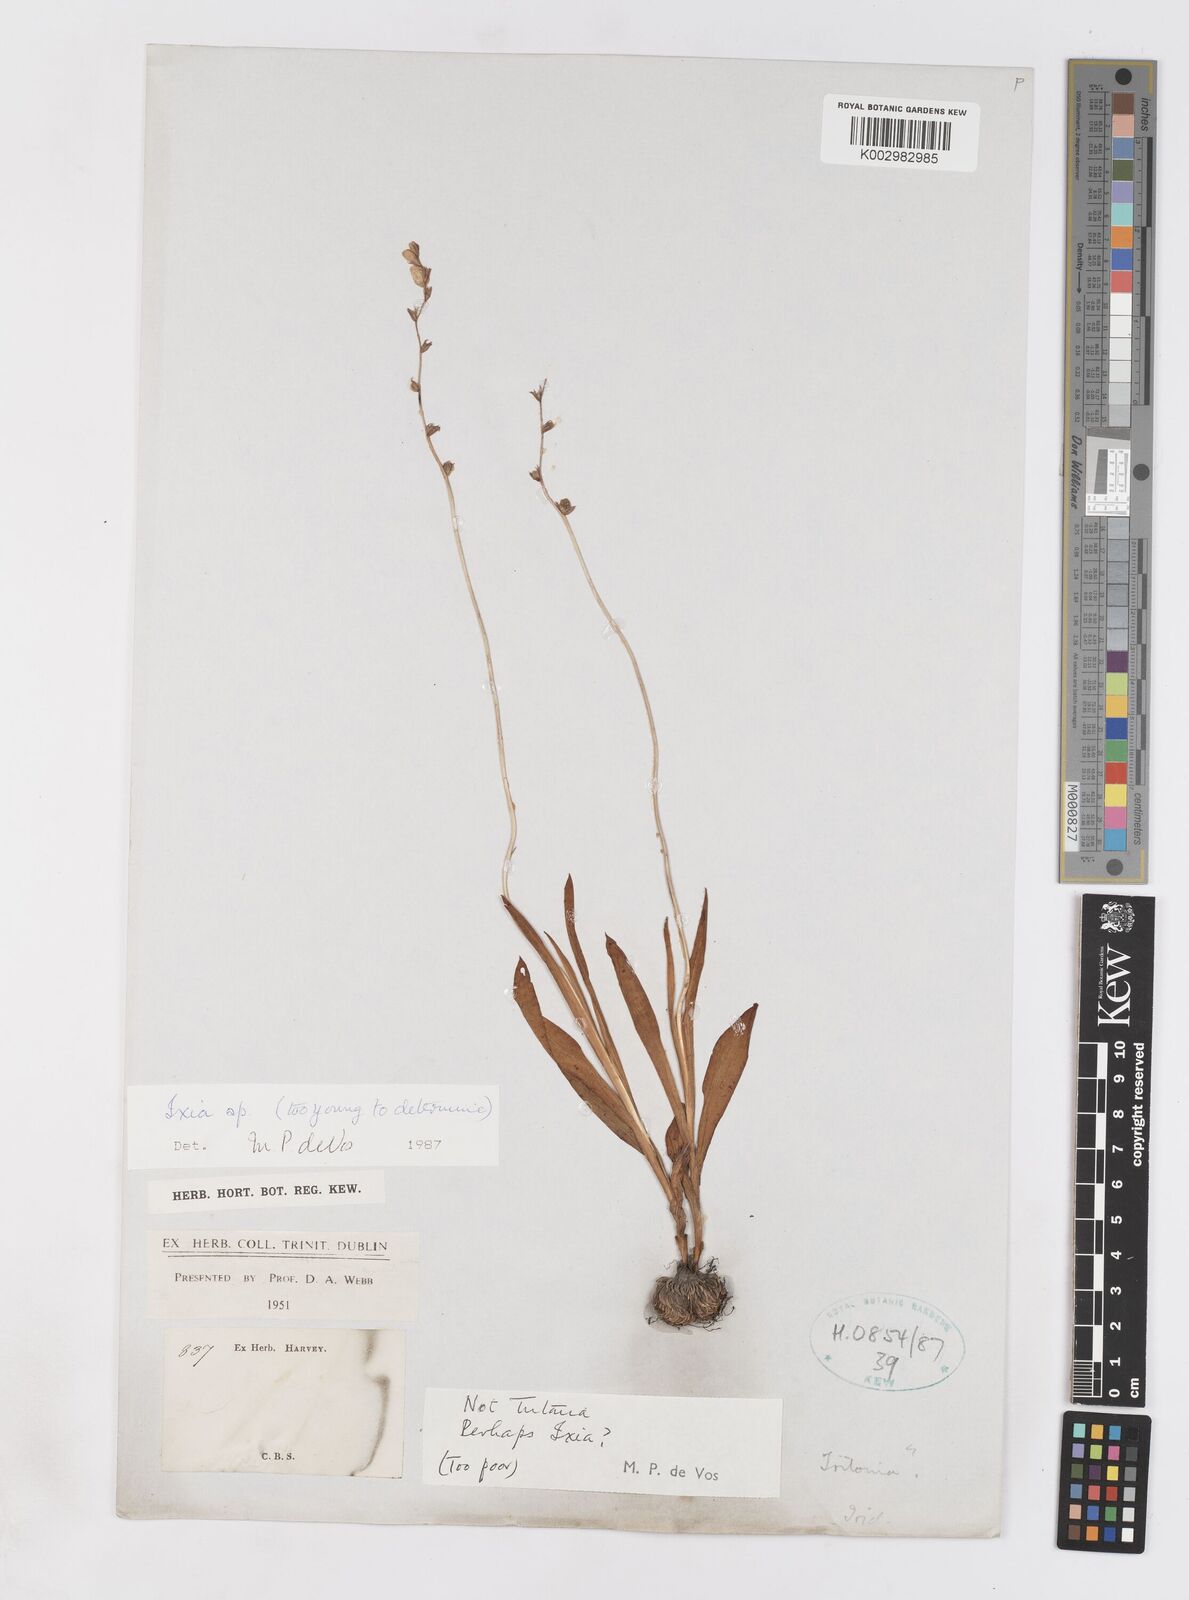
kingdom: Plantae
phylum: Tracheophyta
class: Liliopsida
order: Asparagales
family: Iridaceae
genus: Ixia
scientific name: Ixia
